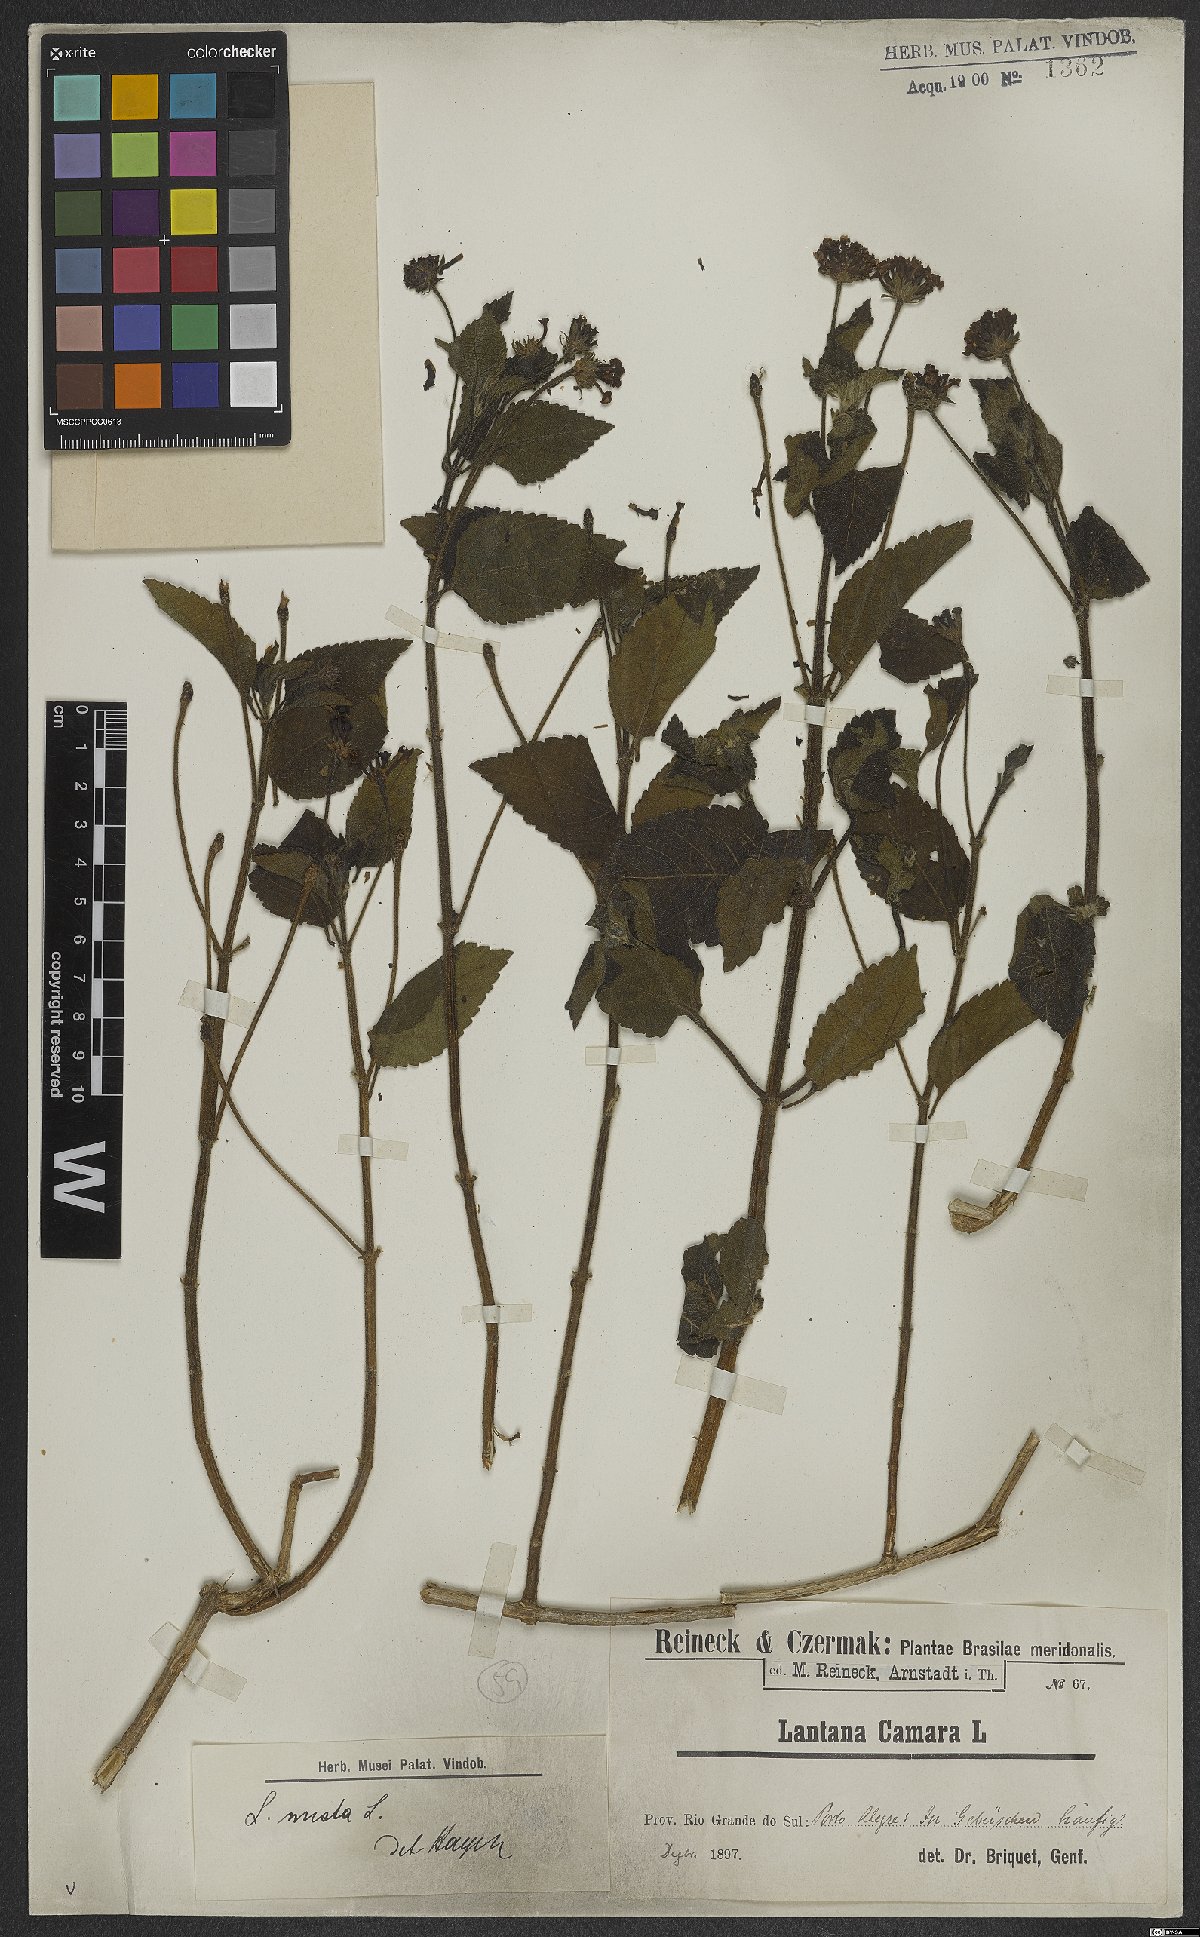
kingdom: Plantae
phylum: Tracheophyta
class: Magnoliopsida
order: Lamiales
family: Verbenaceae
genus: Lantana
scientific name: Lantana mista
